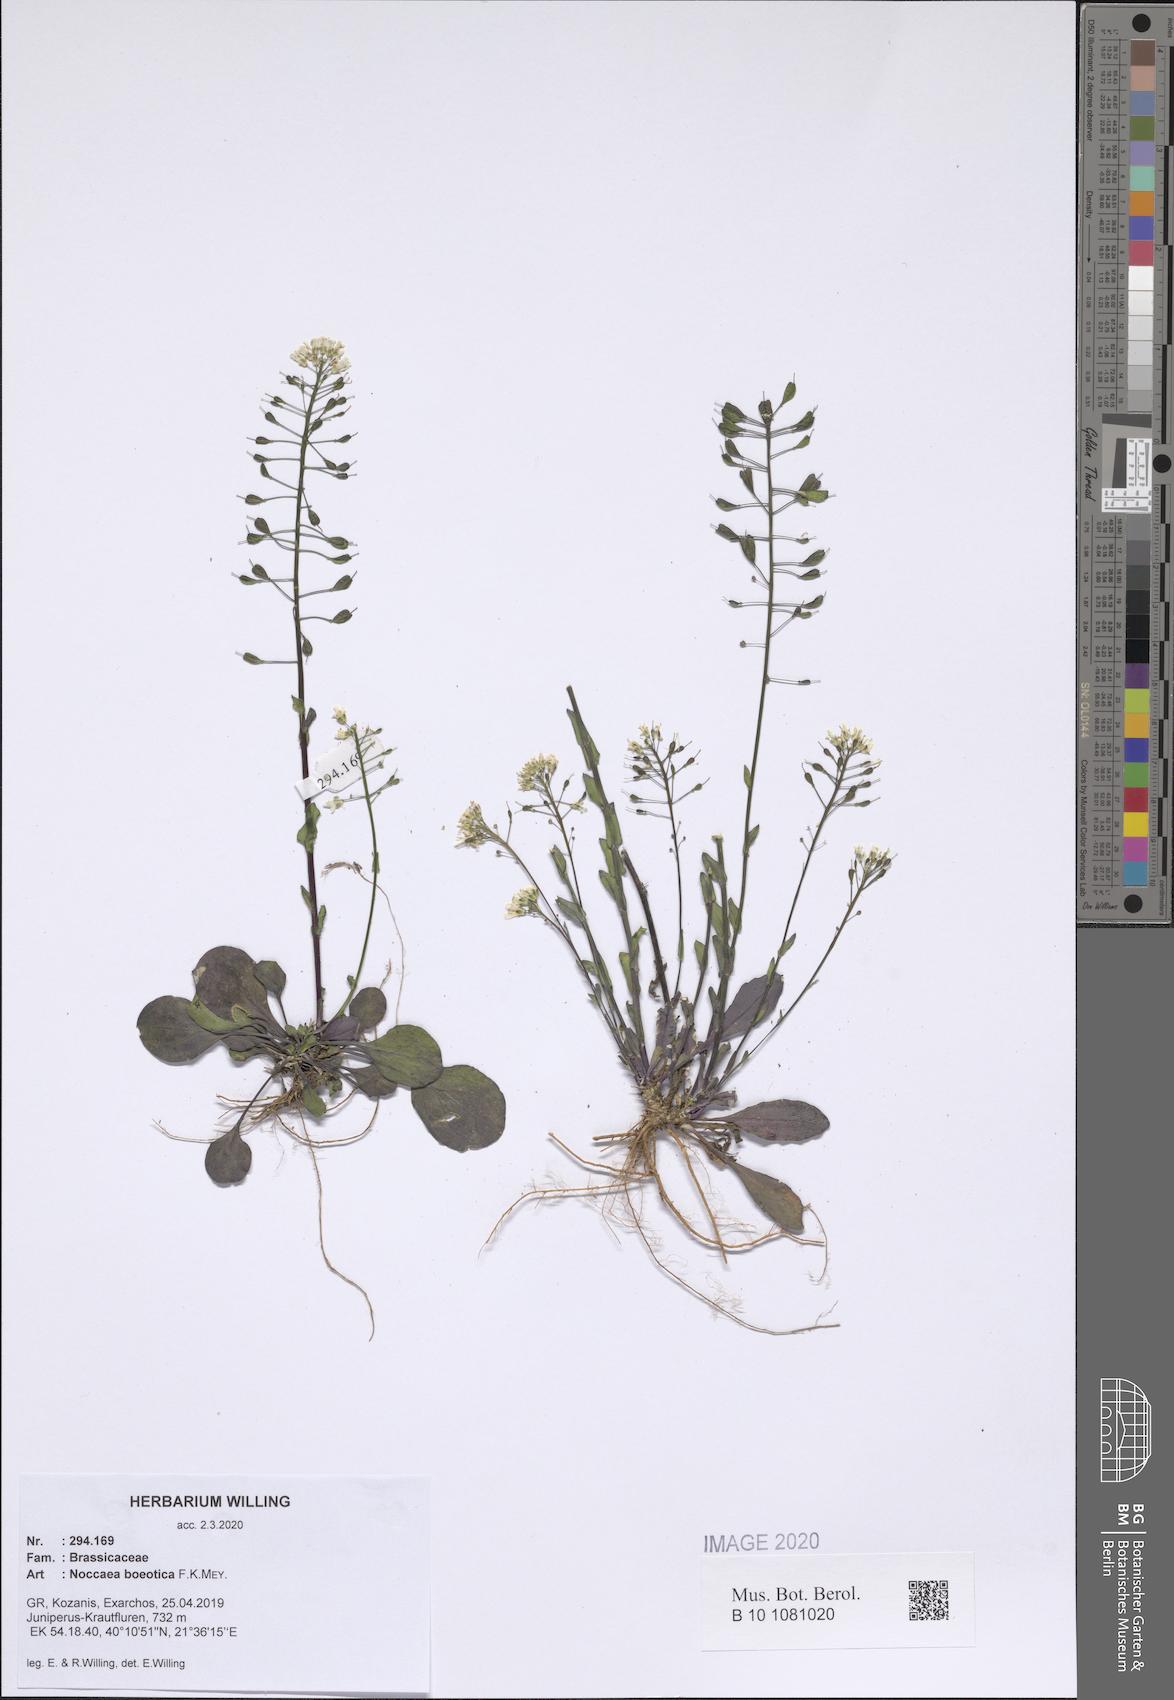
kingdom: Plantae
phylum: Tracheophyta
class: Magnoliopsida
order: Brassicales
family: Brassicaceae
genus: Noccaea
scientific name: Noccaea boeotica
